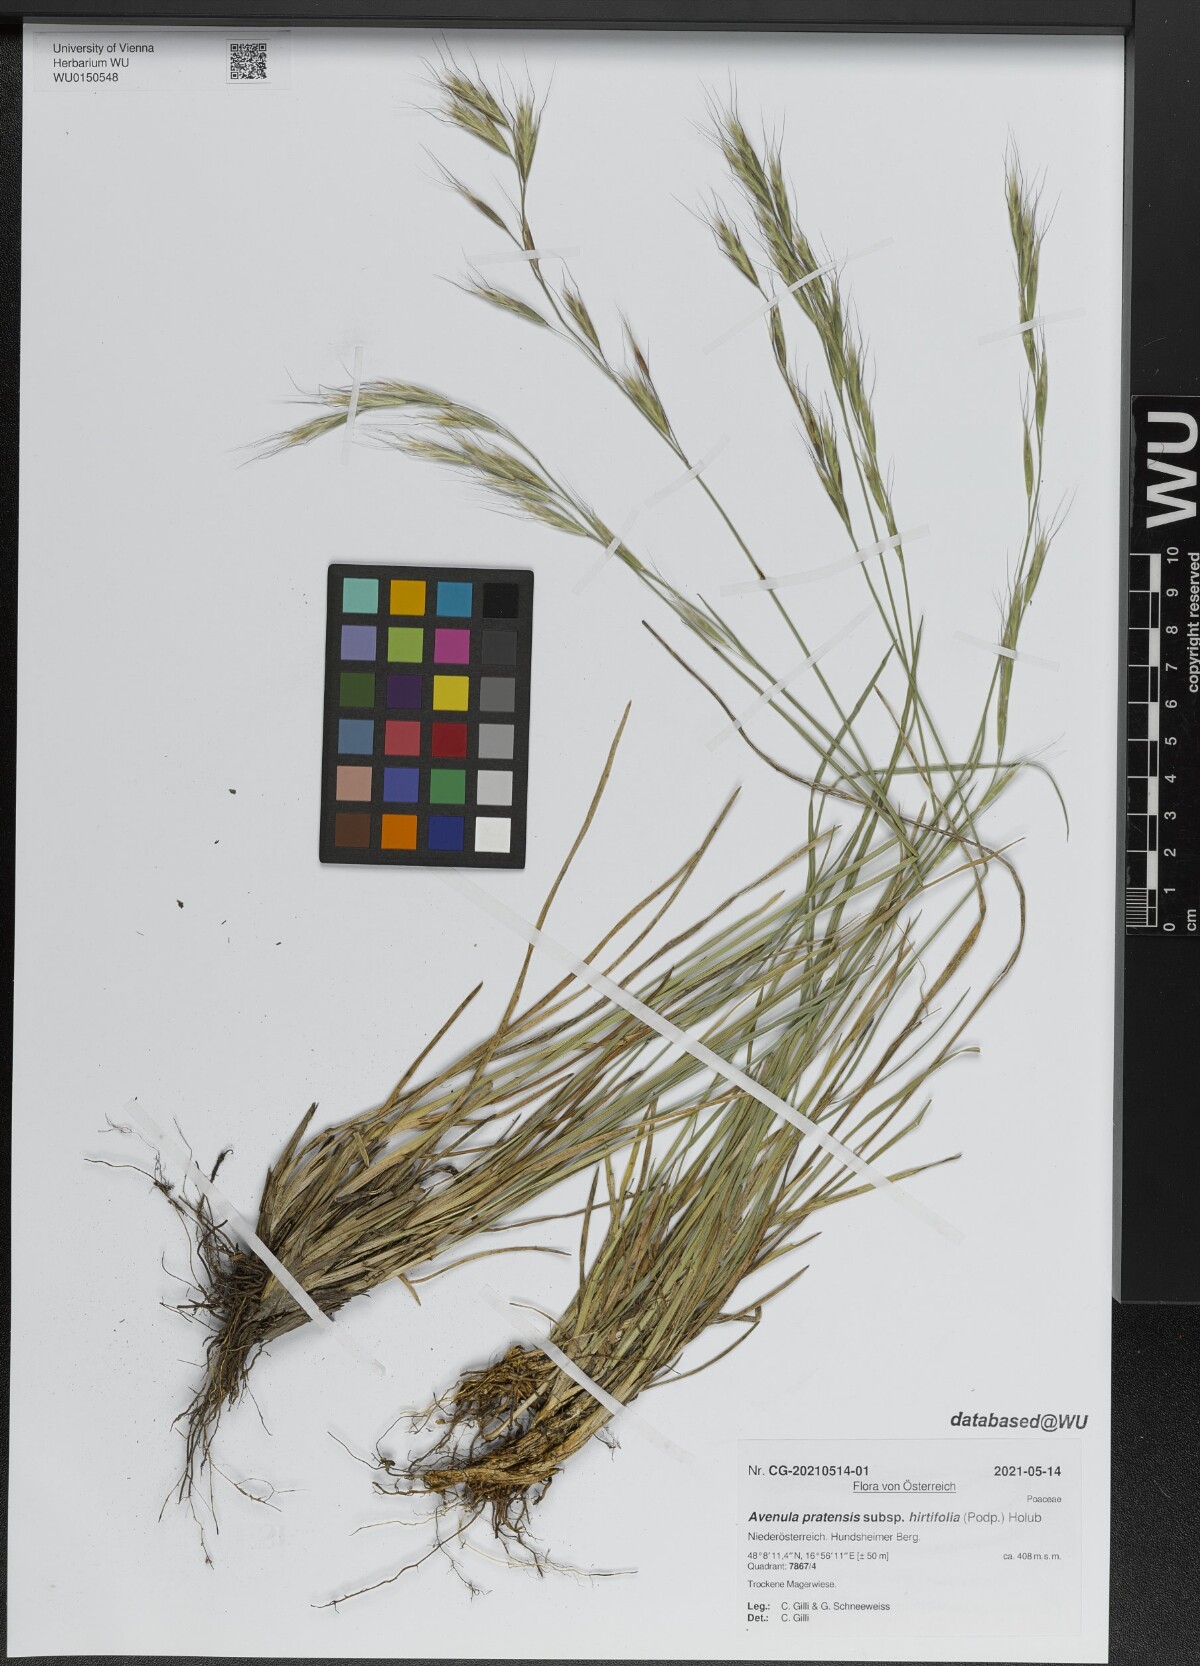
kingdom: Plantae
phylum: Tracheophyta
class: Liliopsida
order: Poales
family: Poaceae
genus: Helictochloa
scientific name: Helictochloa pratensis
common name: Meadow oat grass
